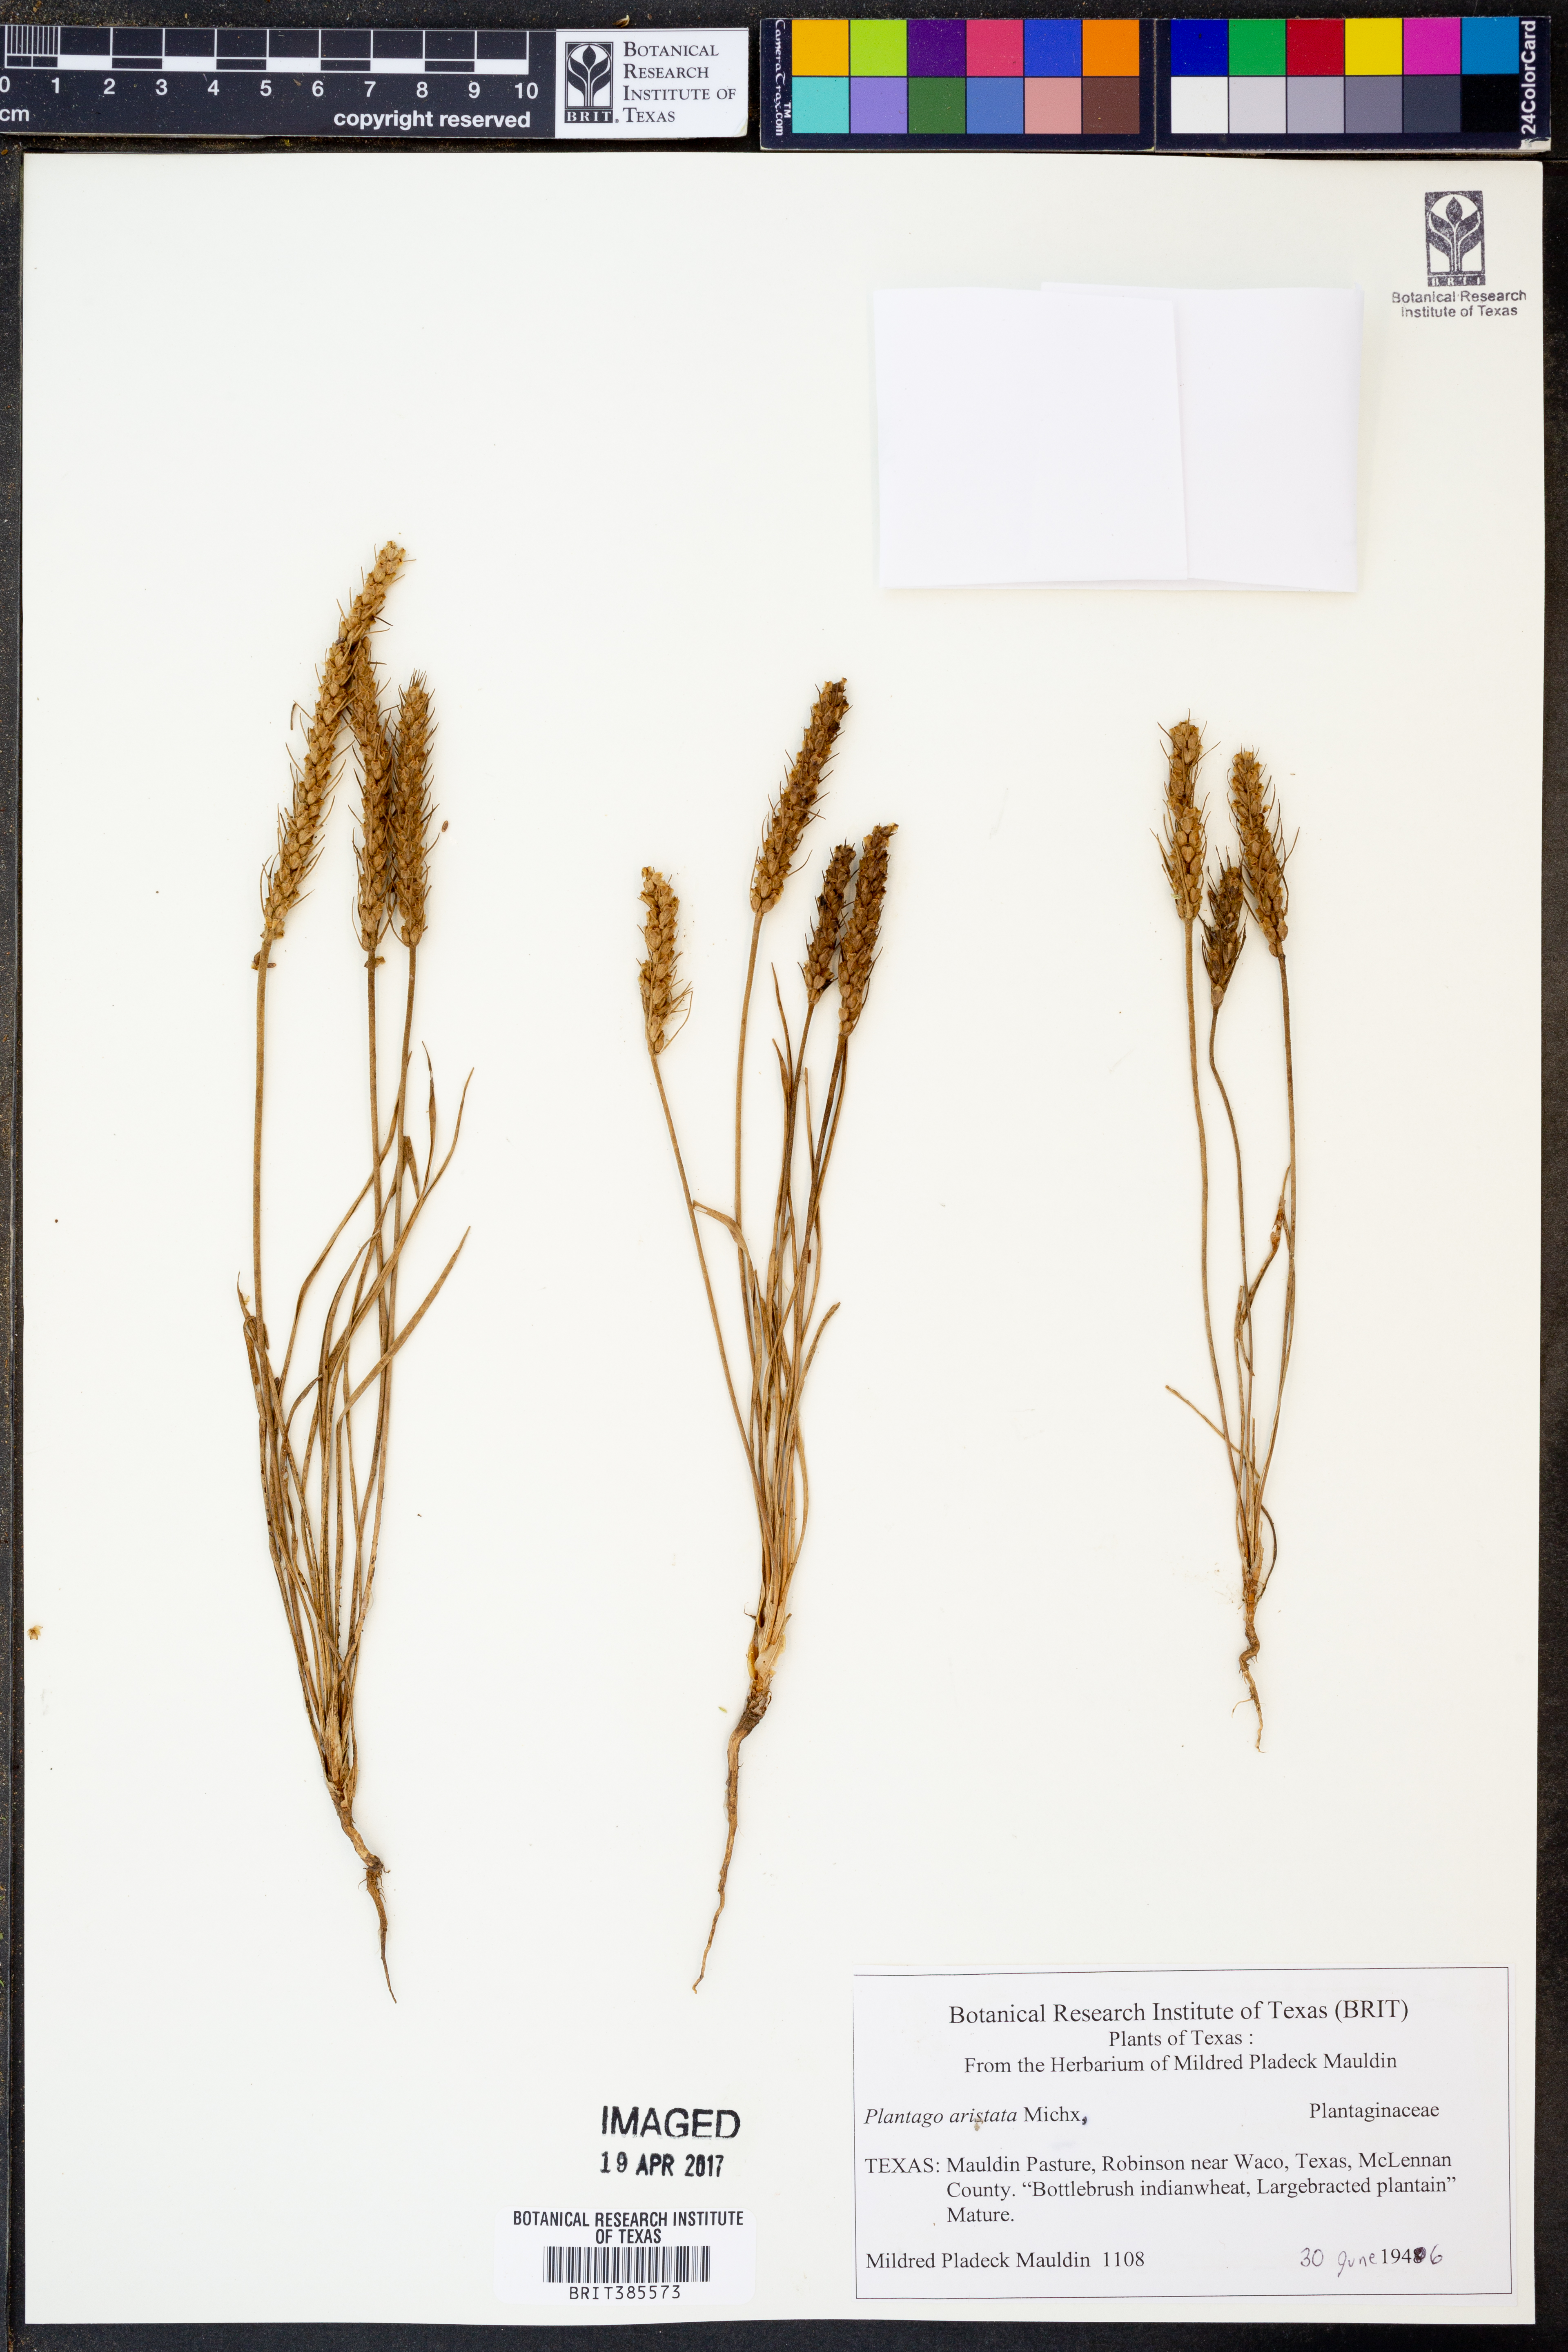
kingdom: Plantae
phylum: Tracheophyta
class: Magnoliopsida
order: Lamiales
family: Plantaginaceae
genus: Plantago
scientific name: Plantago aristata
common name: Bracted plantain
